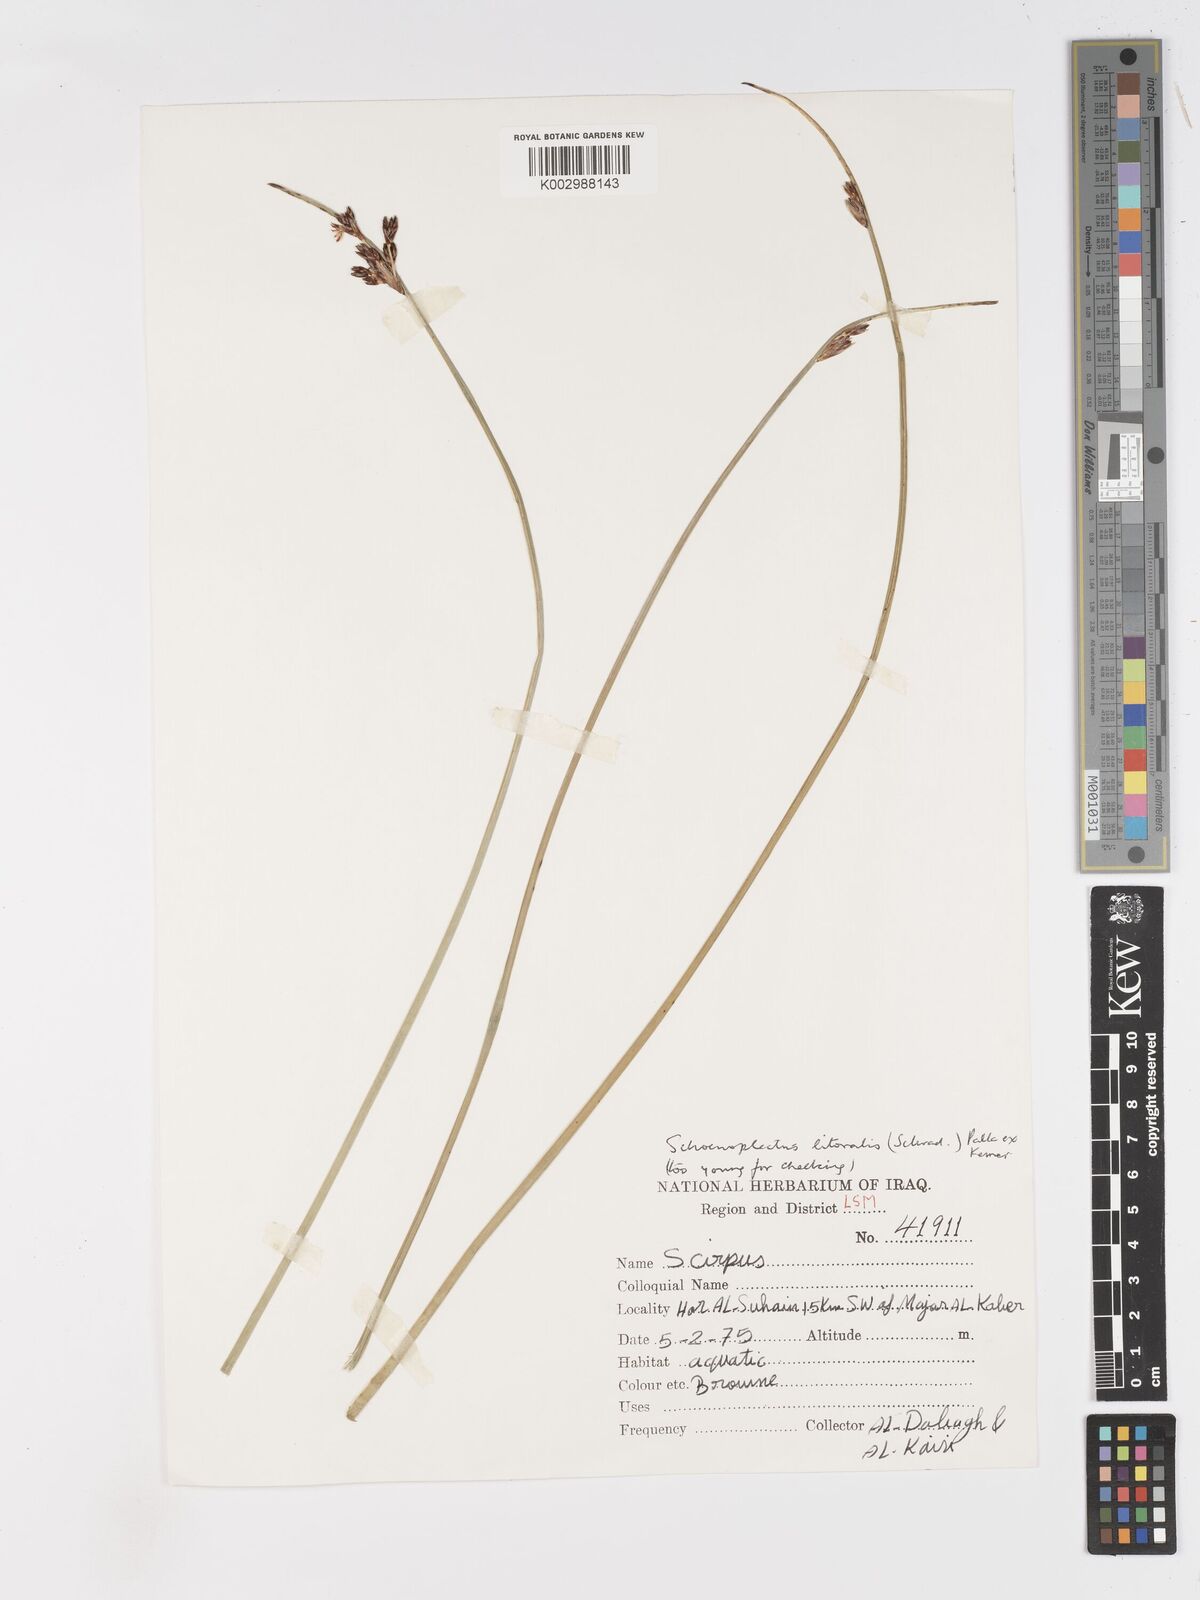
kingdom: Plantae
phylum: Tracheophyta
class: Liliopsida
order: Poales
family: Cyperaceae
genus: Schoenoplectus
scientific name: Schoenoplectus litoralis
